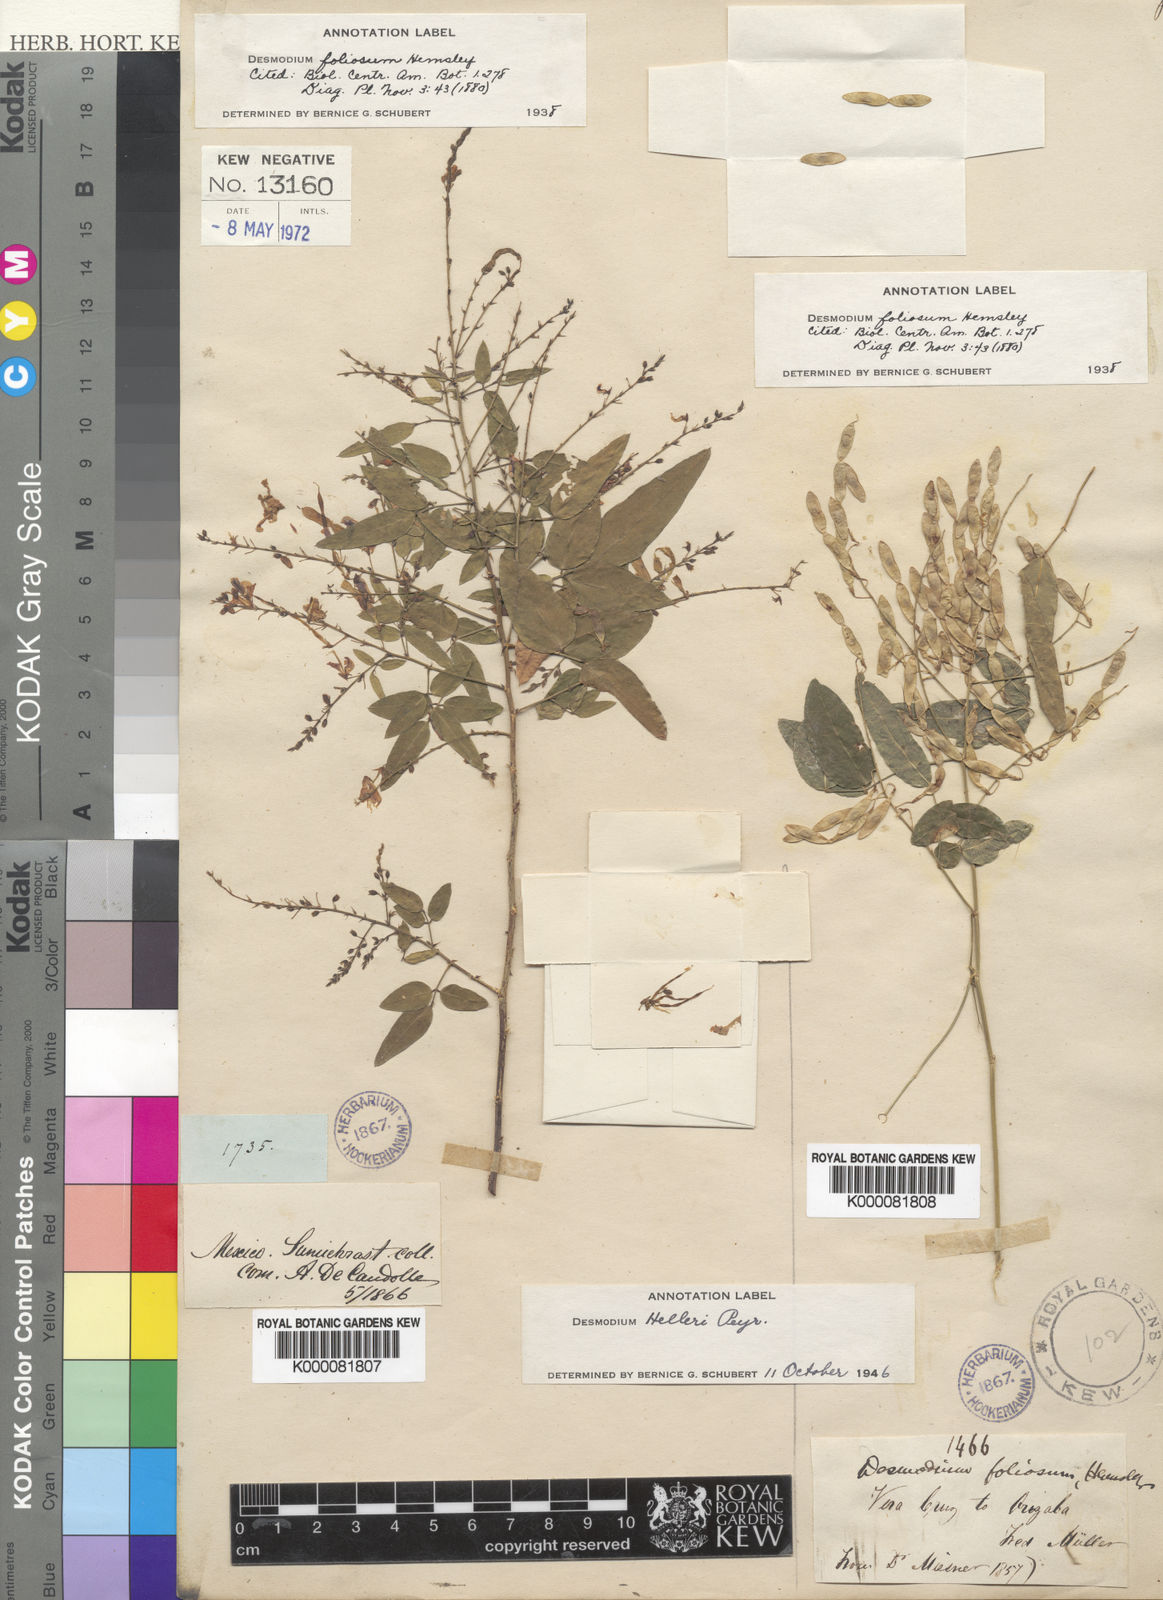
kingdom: Plantae
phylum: Tracheophyta
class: Magnoliopsida
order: Fabales
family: Fabaceae
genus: Desmodium
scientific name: Desmodium helleri
